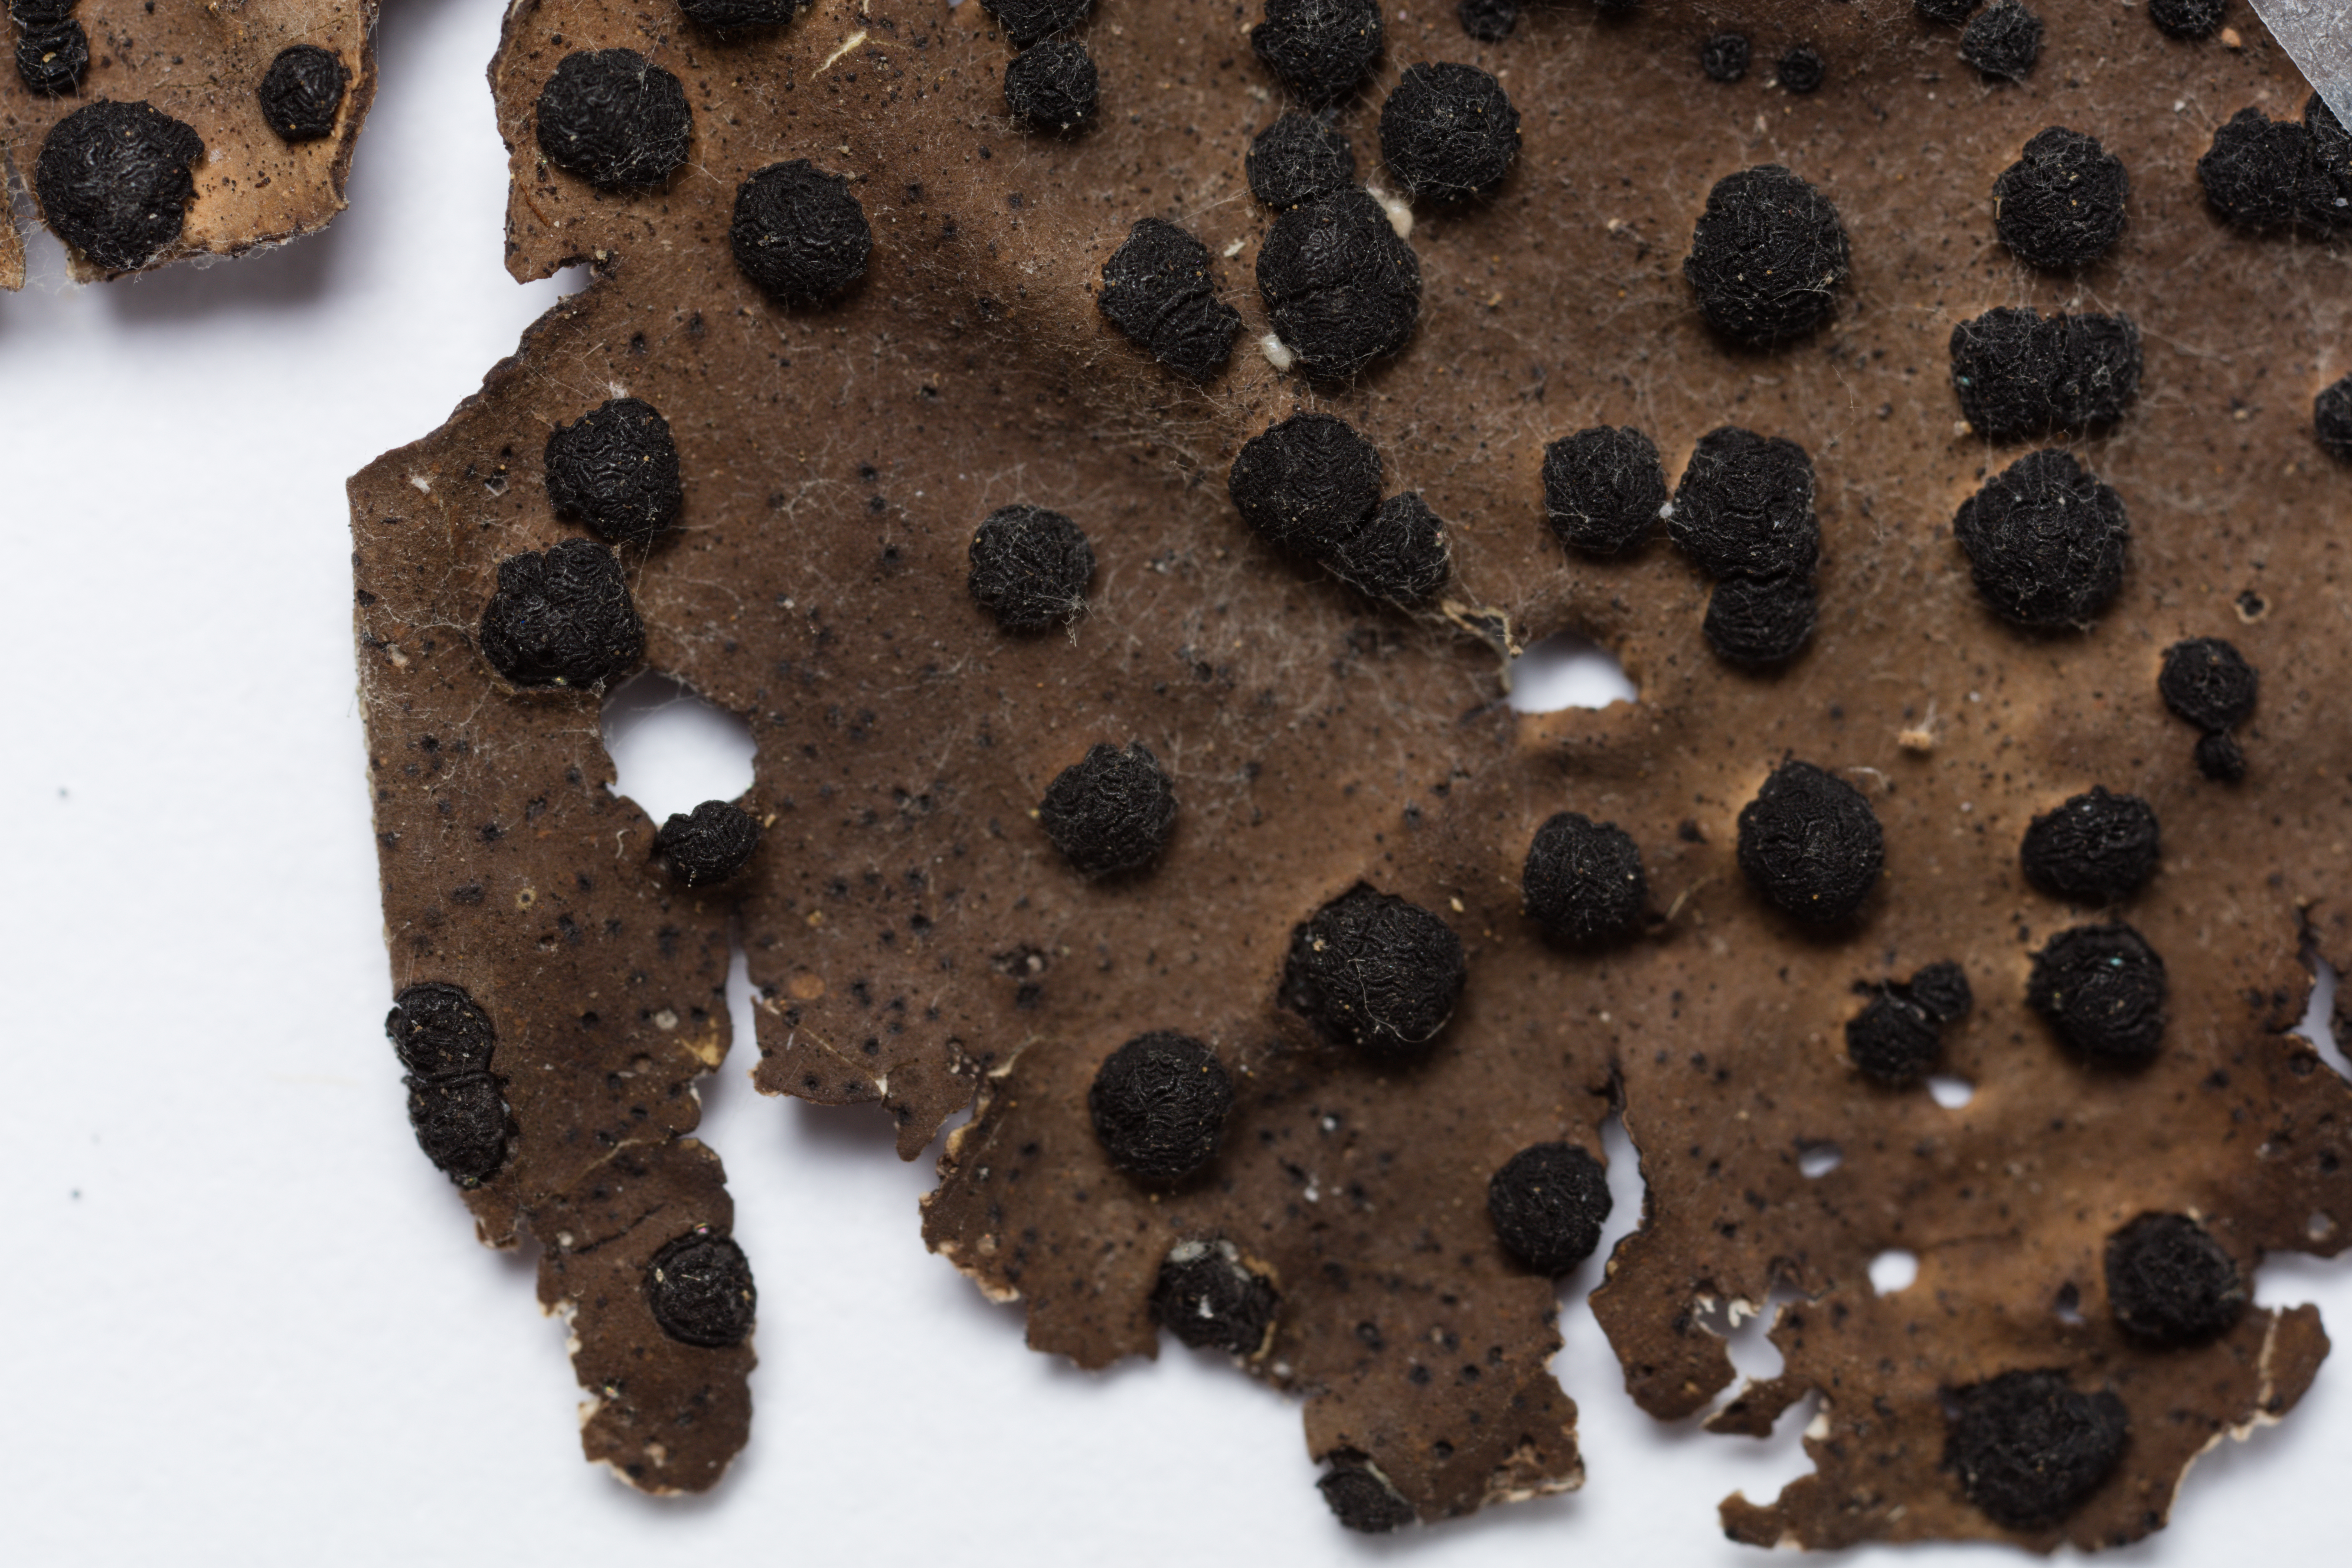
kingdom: Fungi
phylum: Ascomycota
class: Lecanoromycetes
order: Umbilicariales
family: Umbilicariaceae
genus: Umbilicaria
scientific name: Umbilicaria phaea
